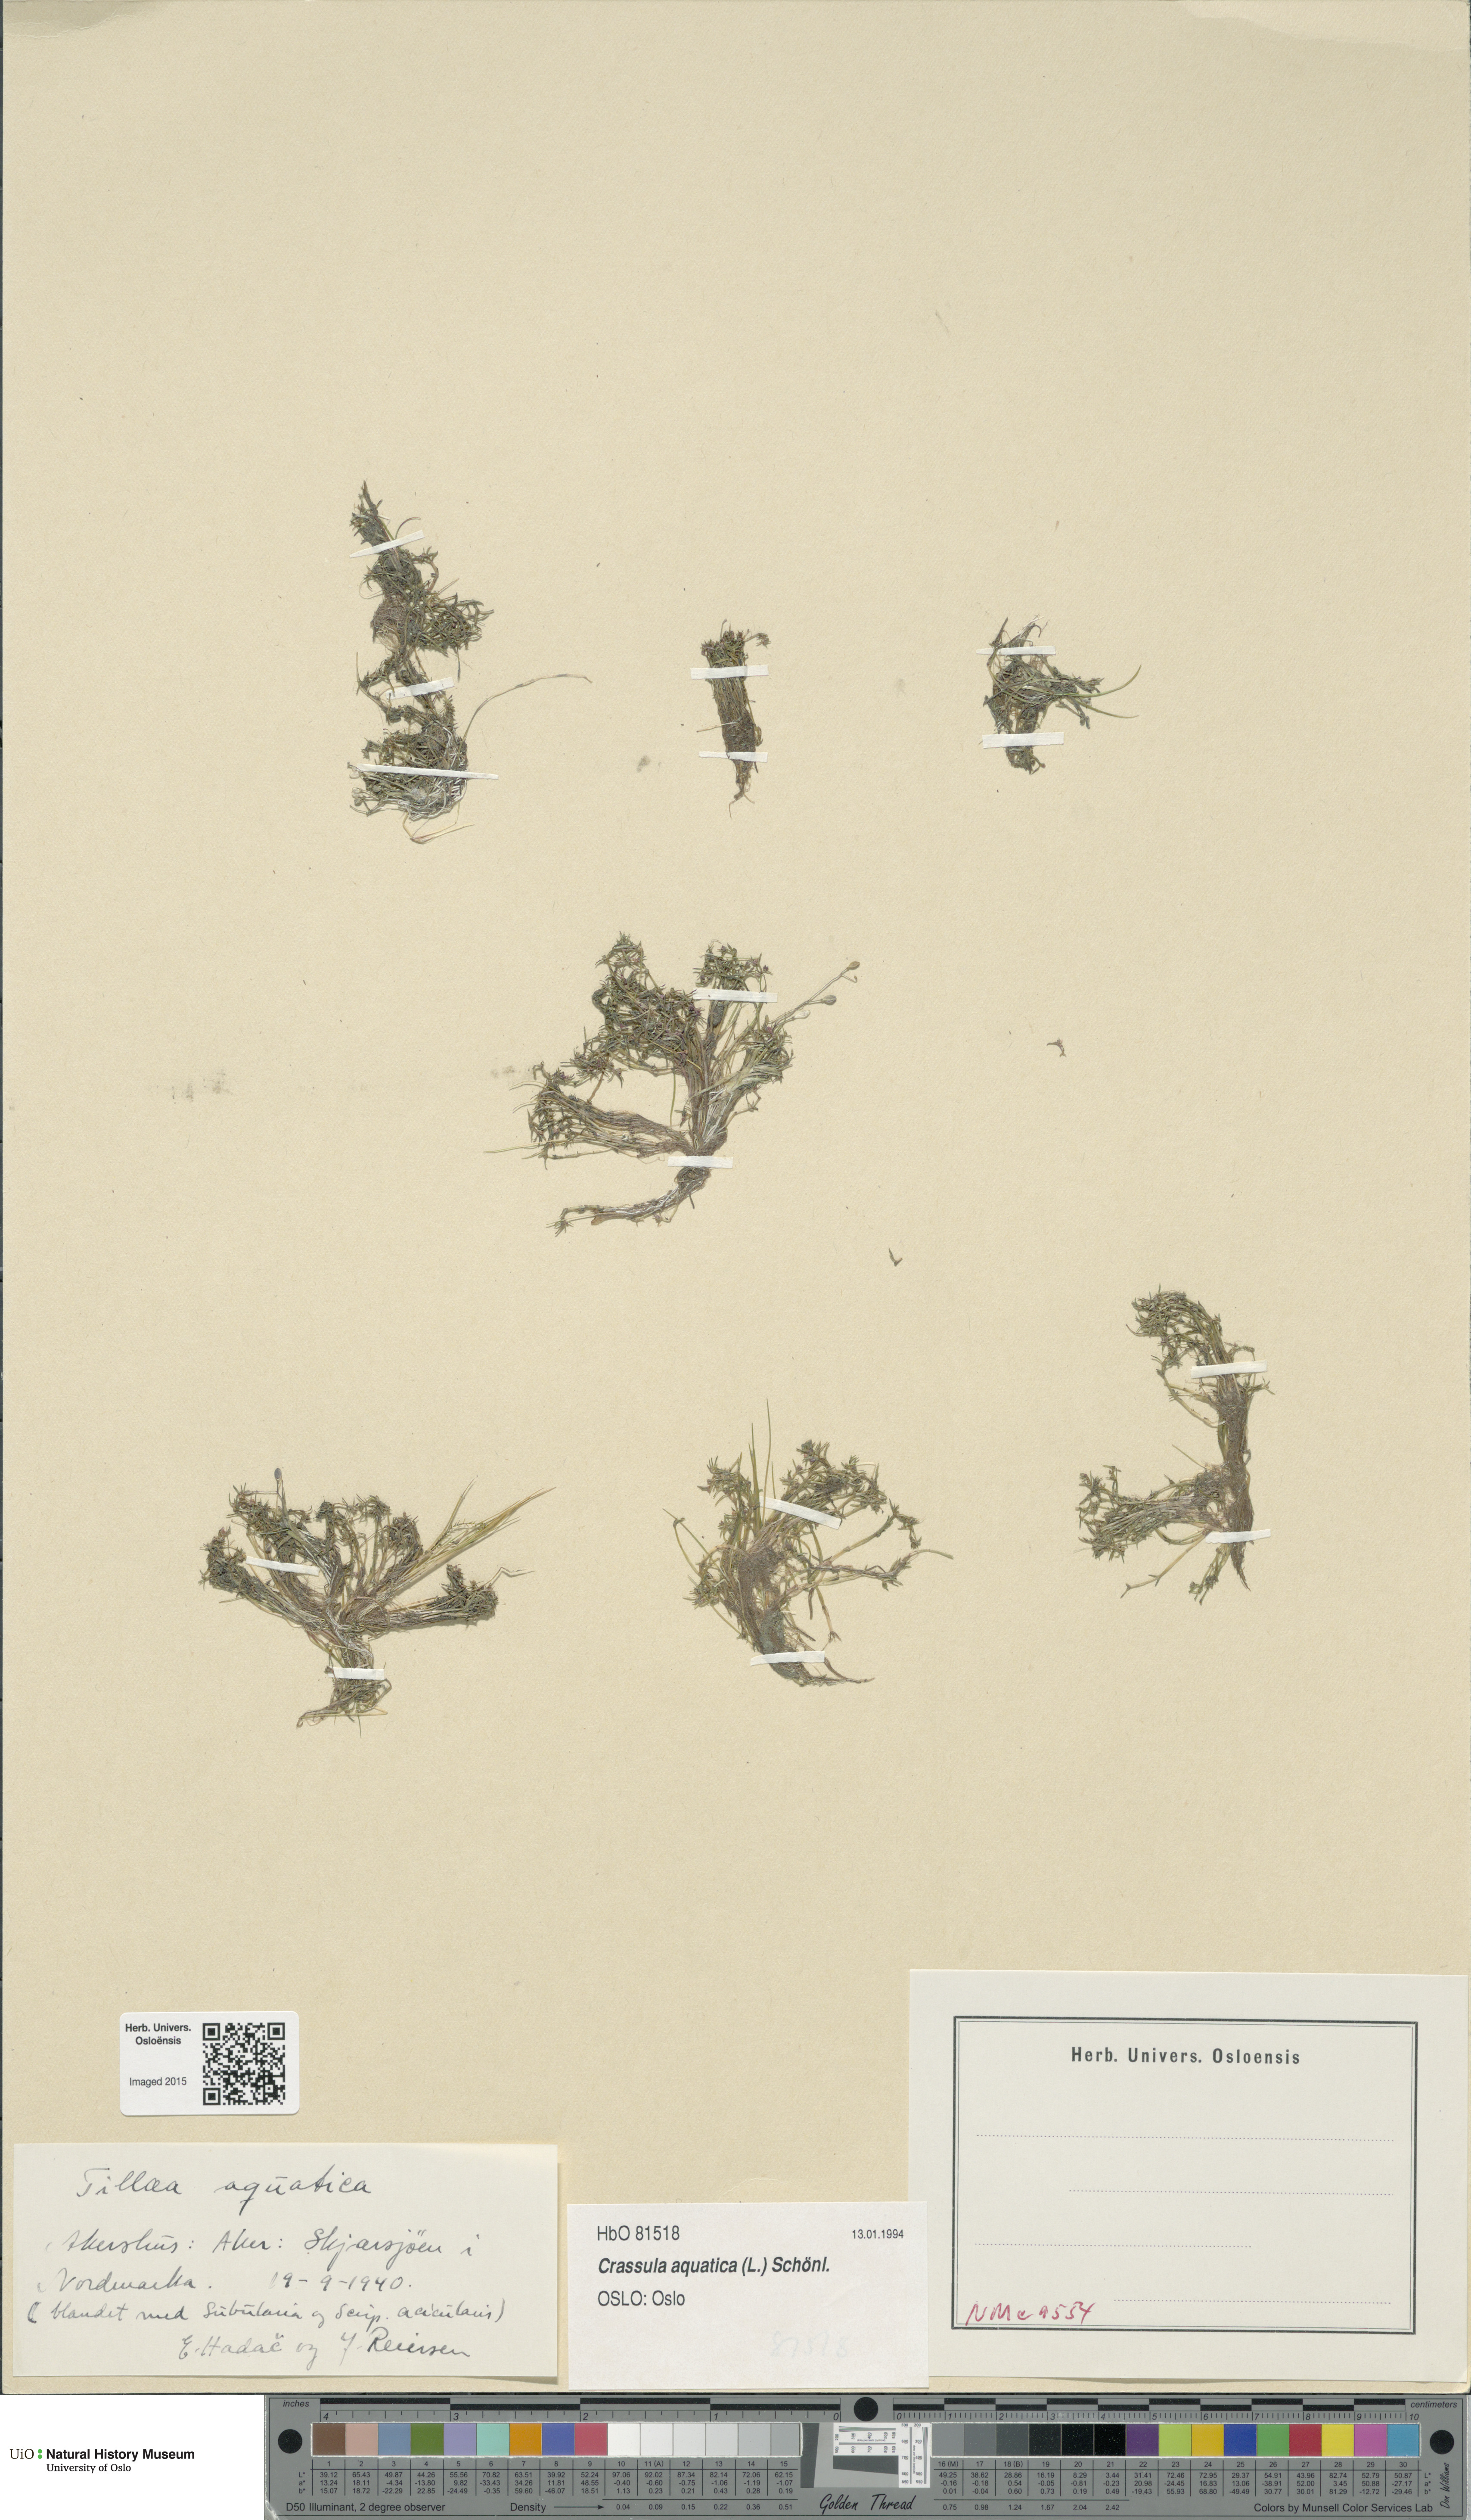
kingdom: Plantae
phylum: Tracheophyta
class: Magnoliopsida
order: Saxifragales
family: Crassulaceae
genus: Crassula
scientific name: Crassula aquatica
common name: Pigmyweed
